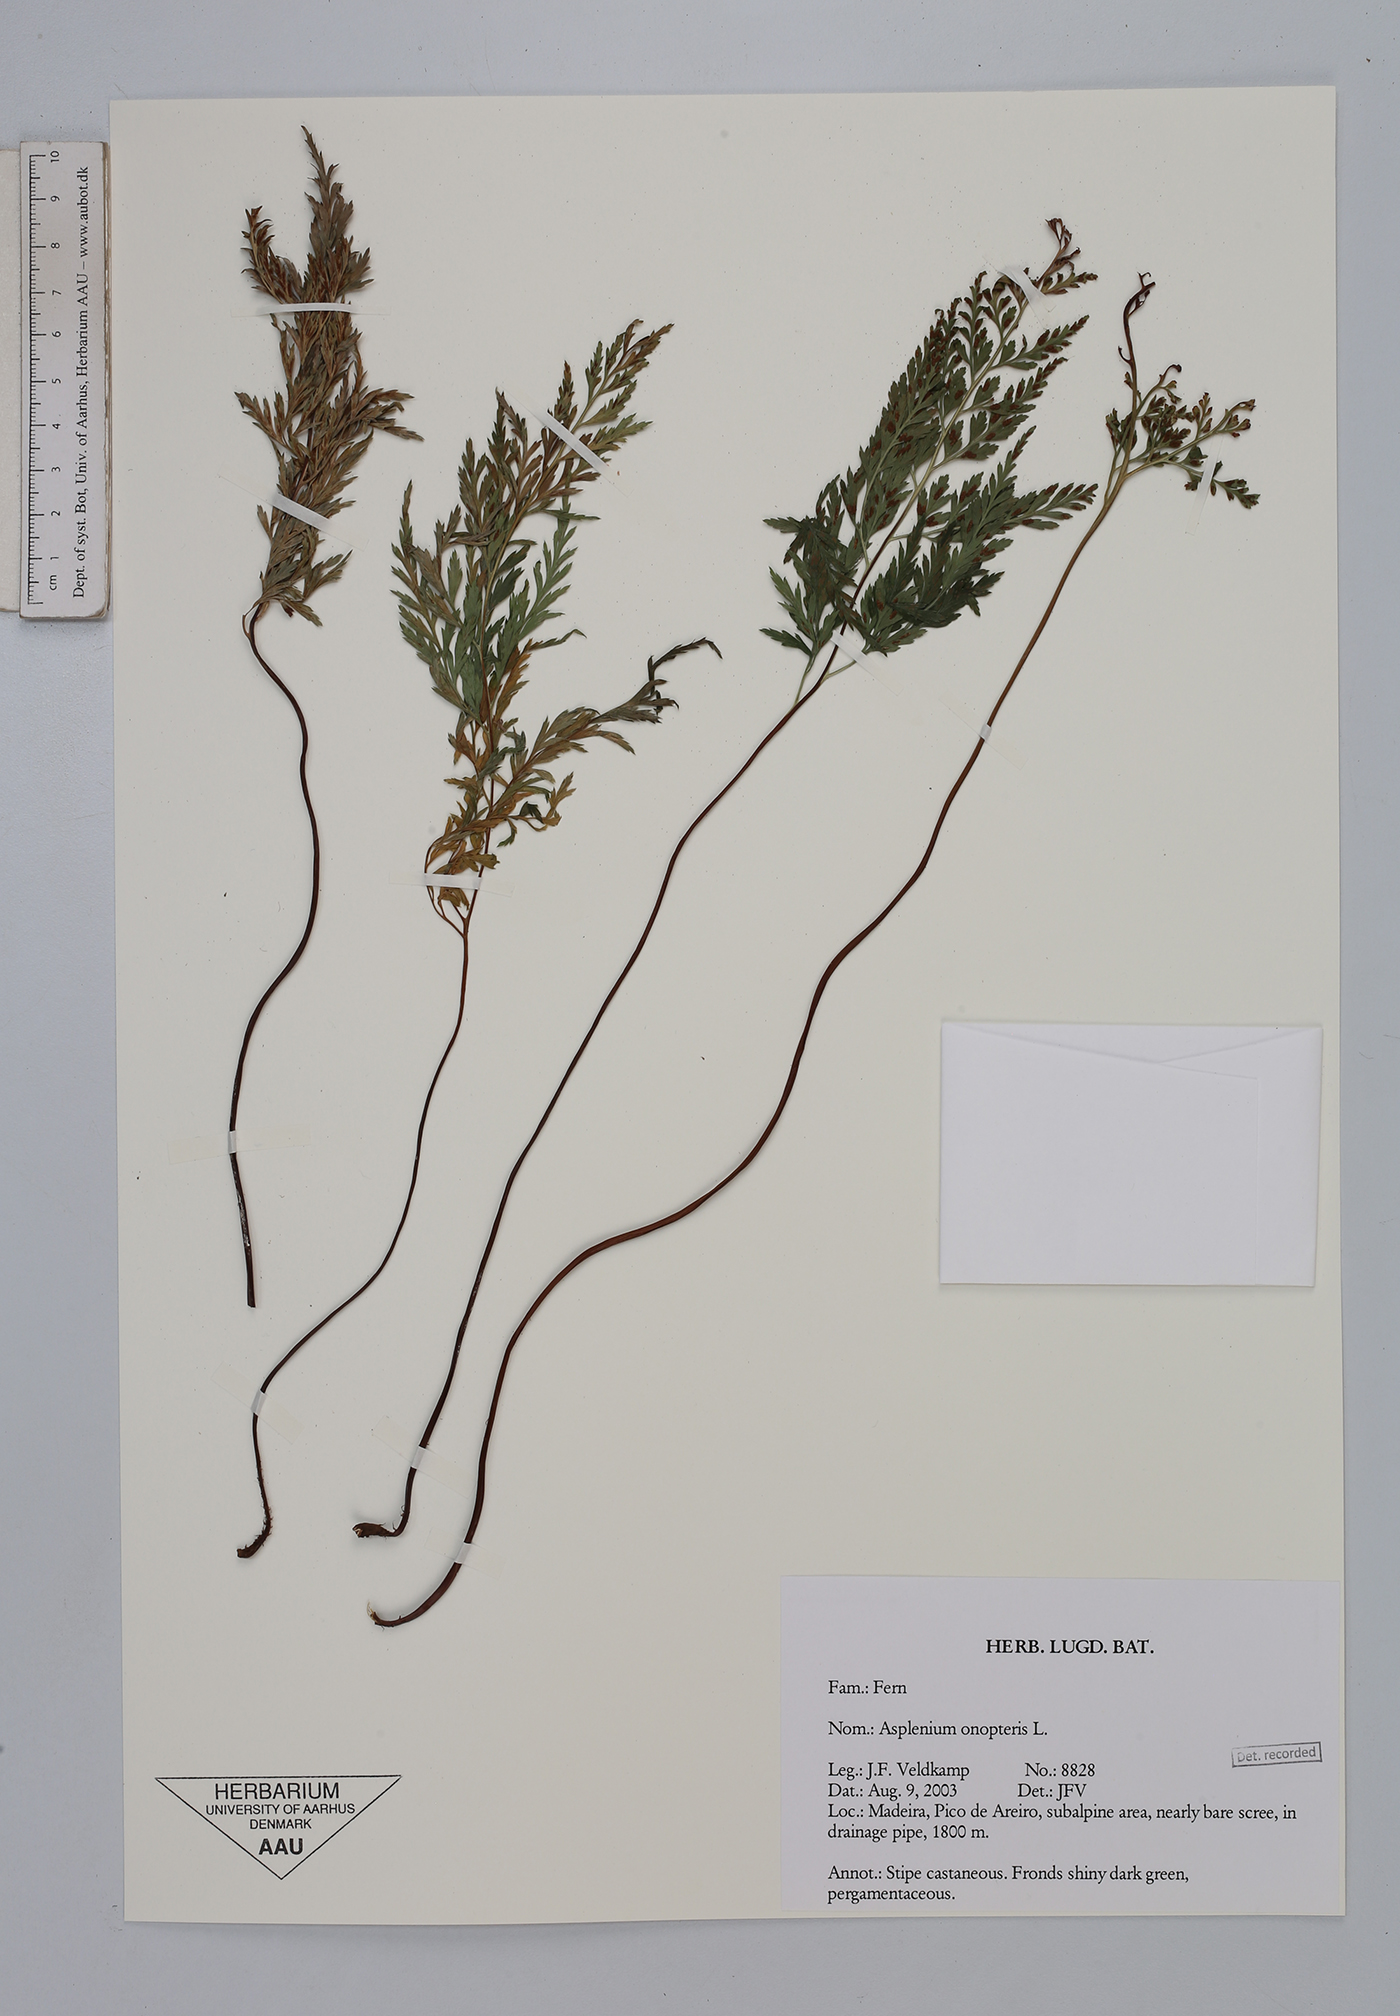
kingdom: Plantae
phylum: Tracheophyta
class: Polypodiopsida
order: Polypodiales
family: Aspleniaceae
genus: Asplenium
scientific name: Asplenium onopteris
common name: Irish spleenwort
